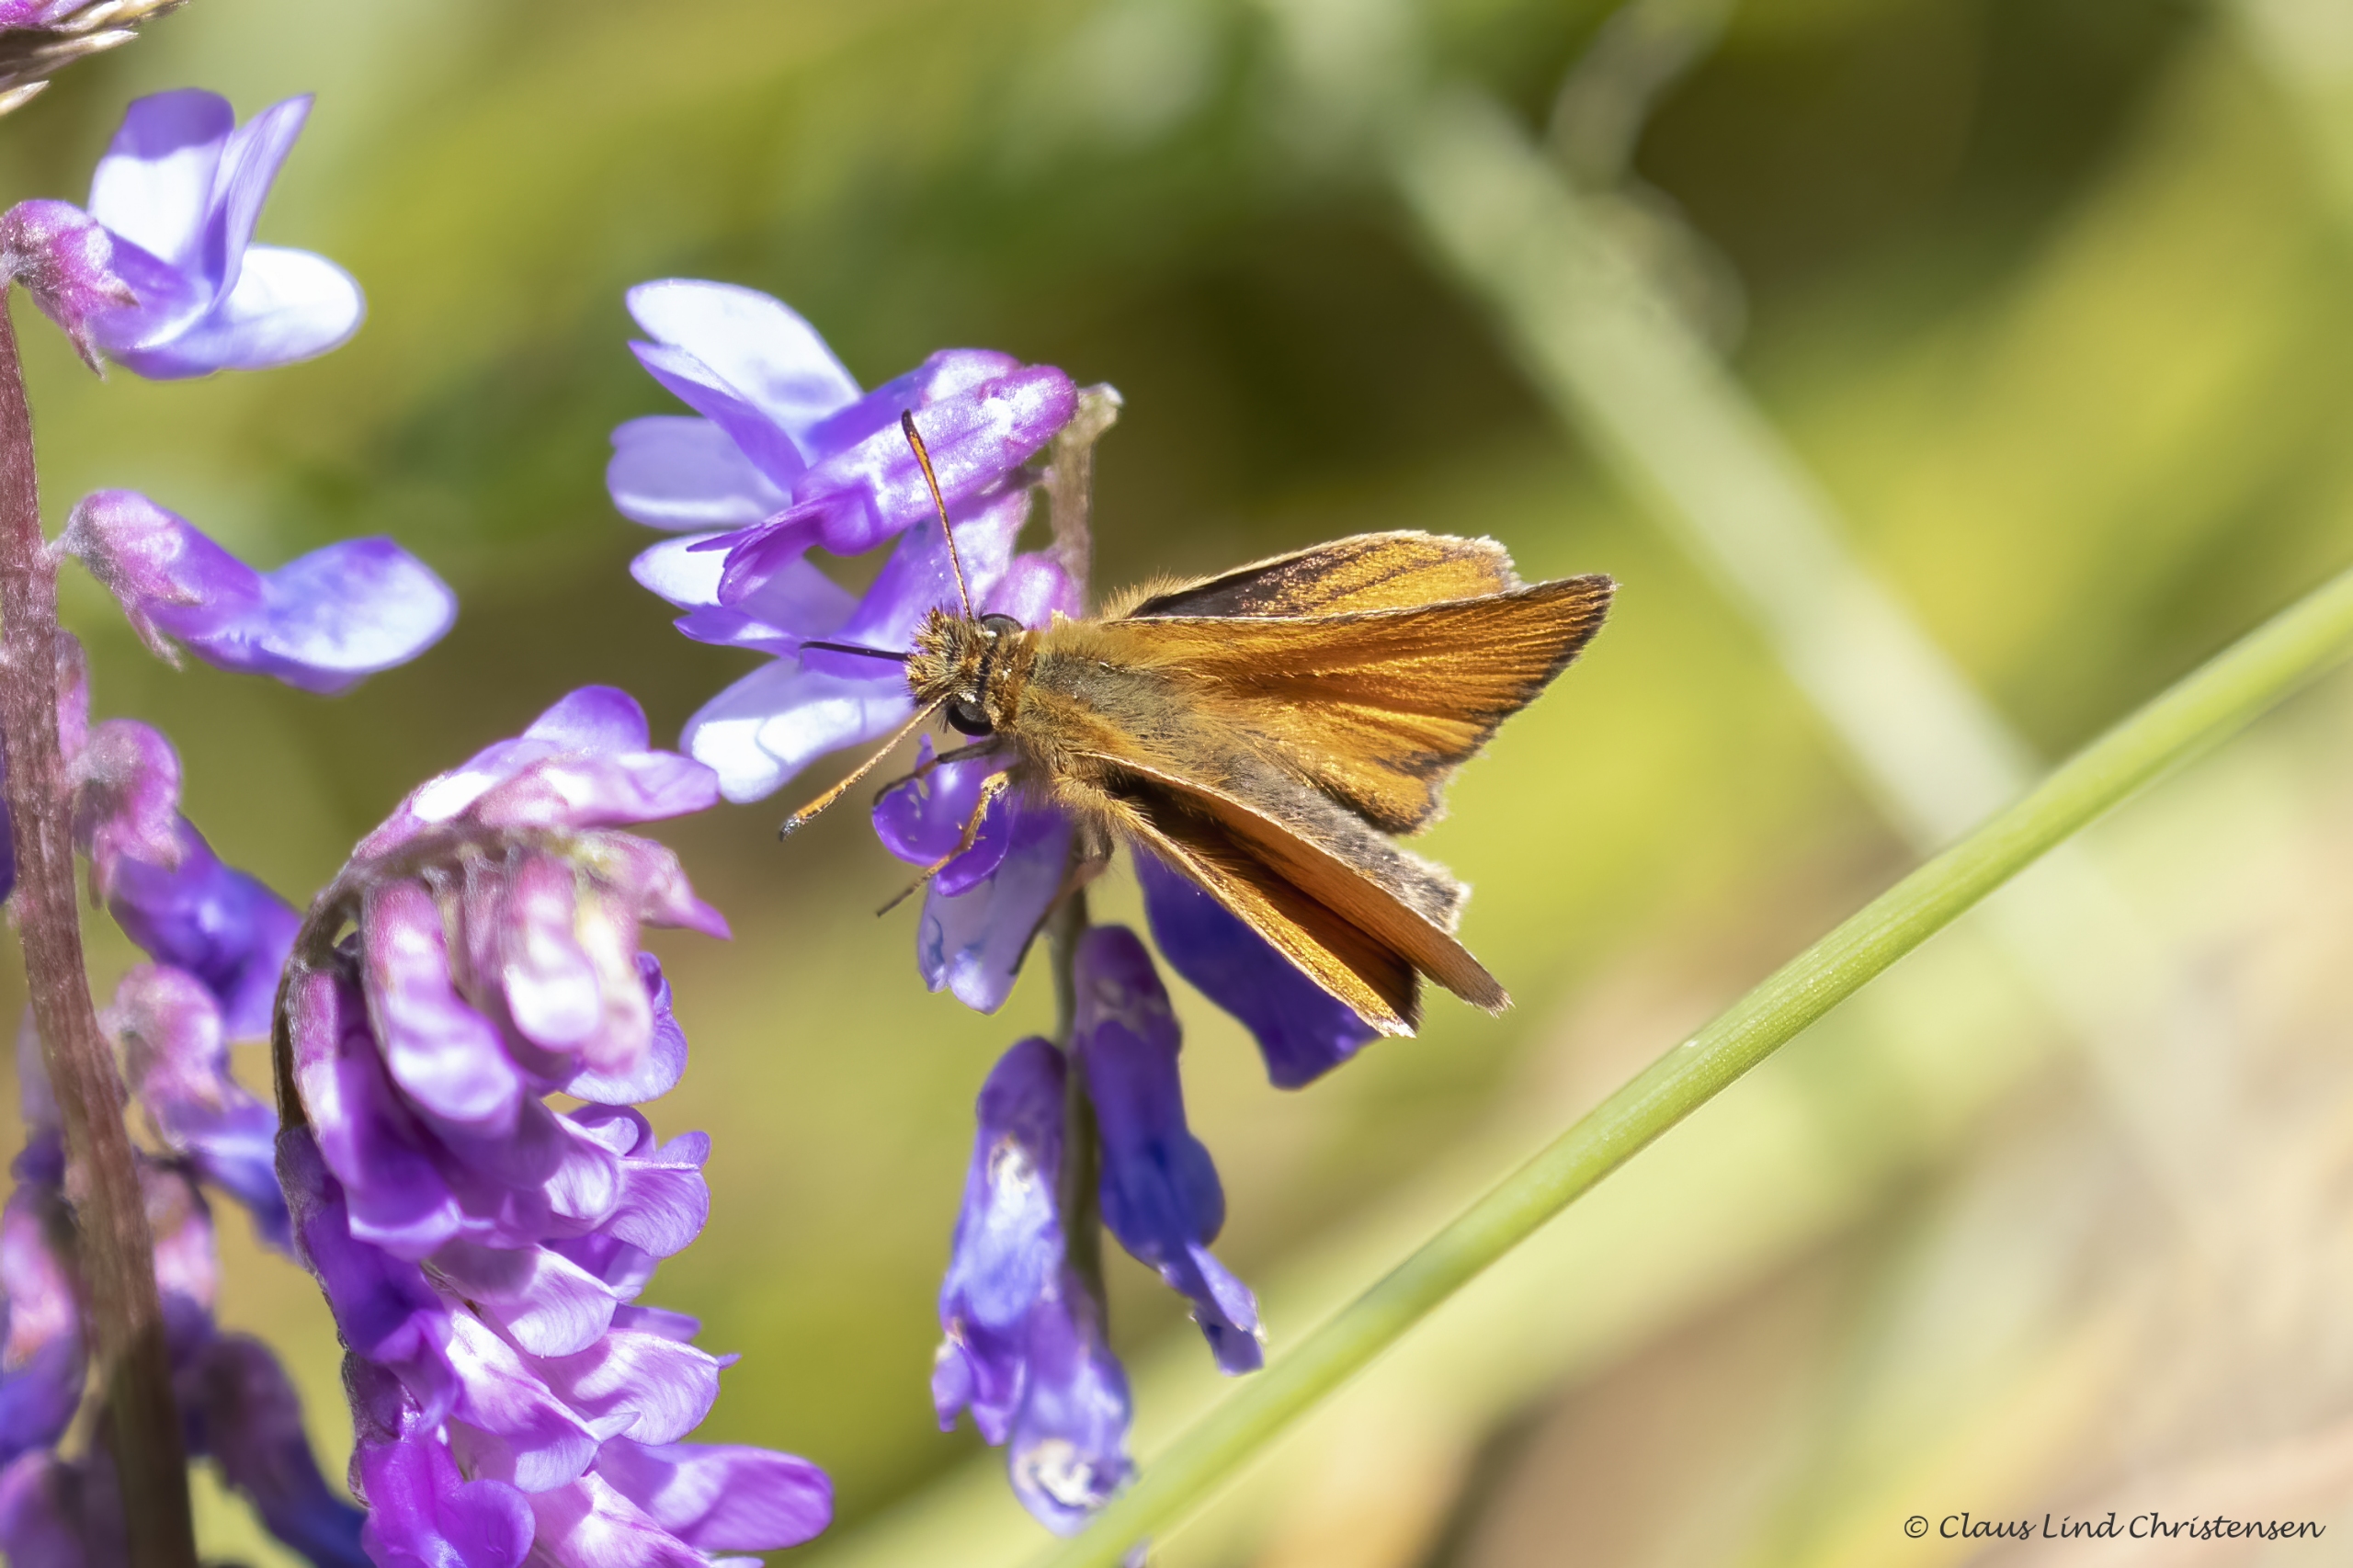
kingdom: Animalia
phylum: Arthropoda
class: Insecta
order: Lepidoptera
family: Hesperiidae
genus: Thymelicus
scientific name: Thymelicus lineola
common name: Stregbredpande
